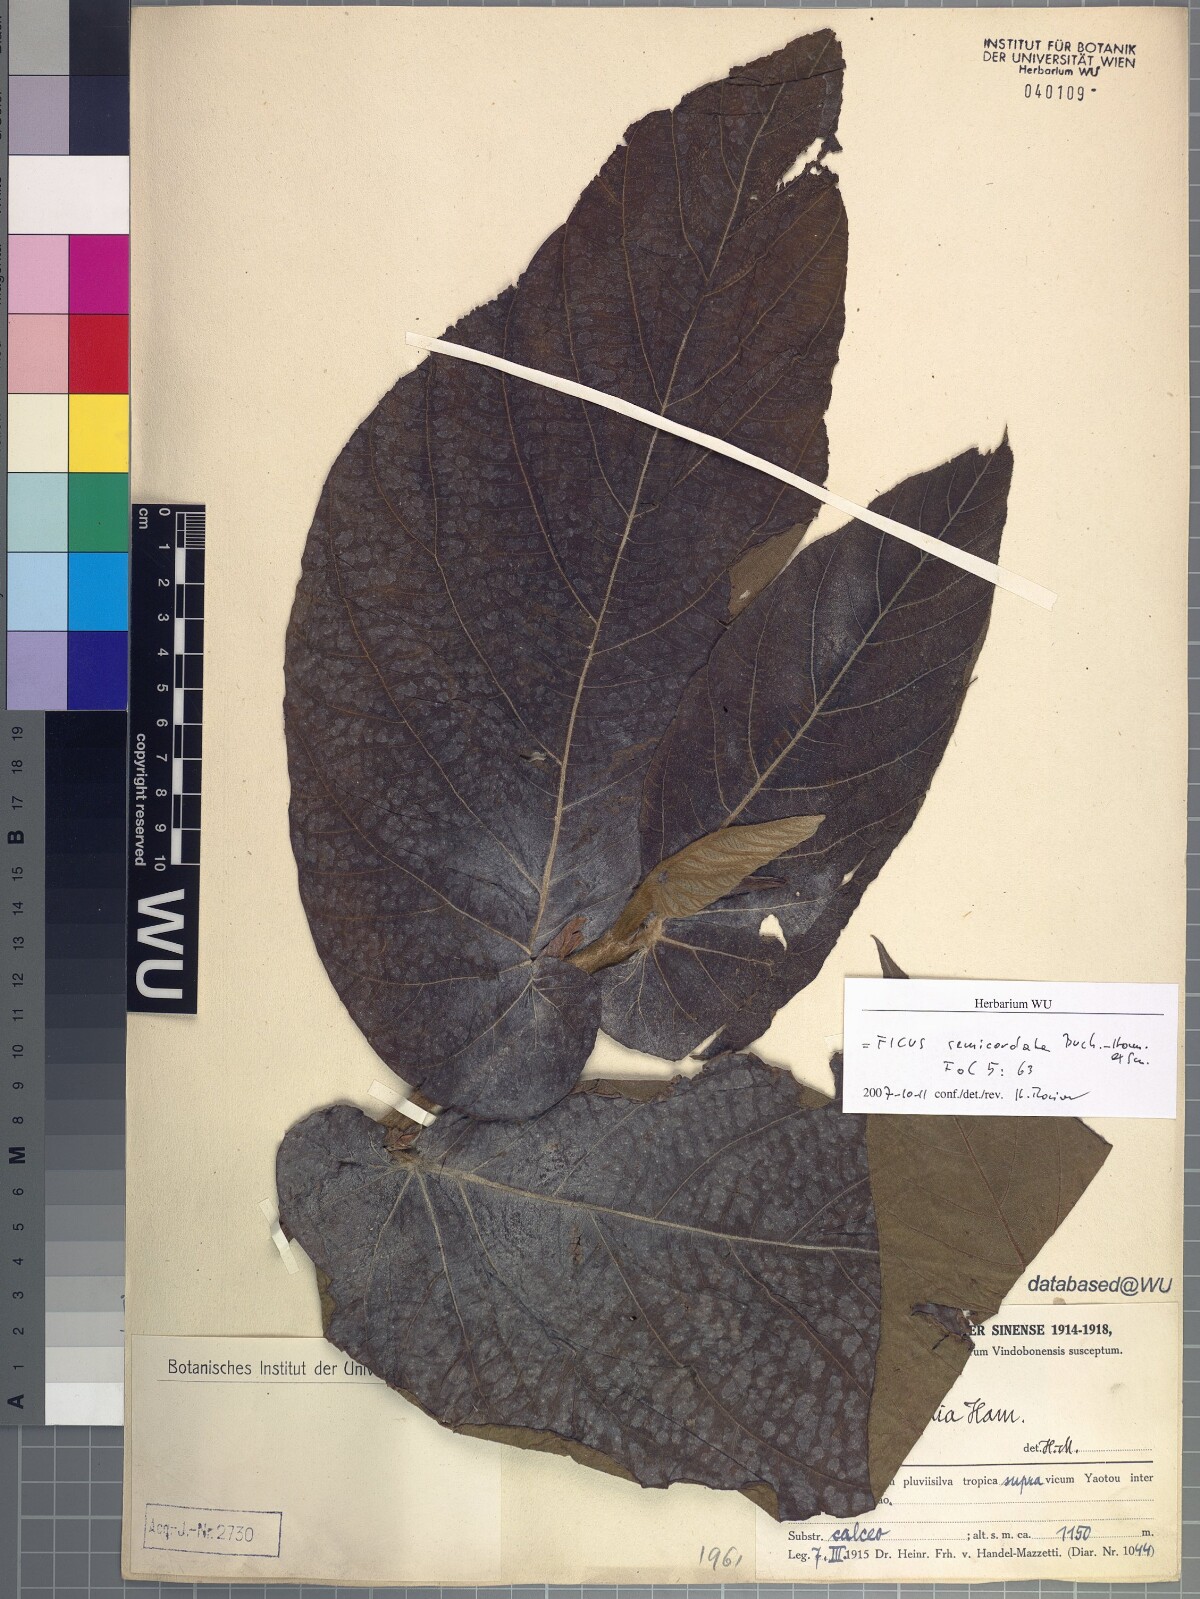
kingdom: Plantae
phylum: Tracheophyta
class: Magnoliopsida
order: Rosales
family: Moraceae
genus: Ficus
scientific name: Ficus semicordata
